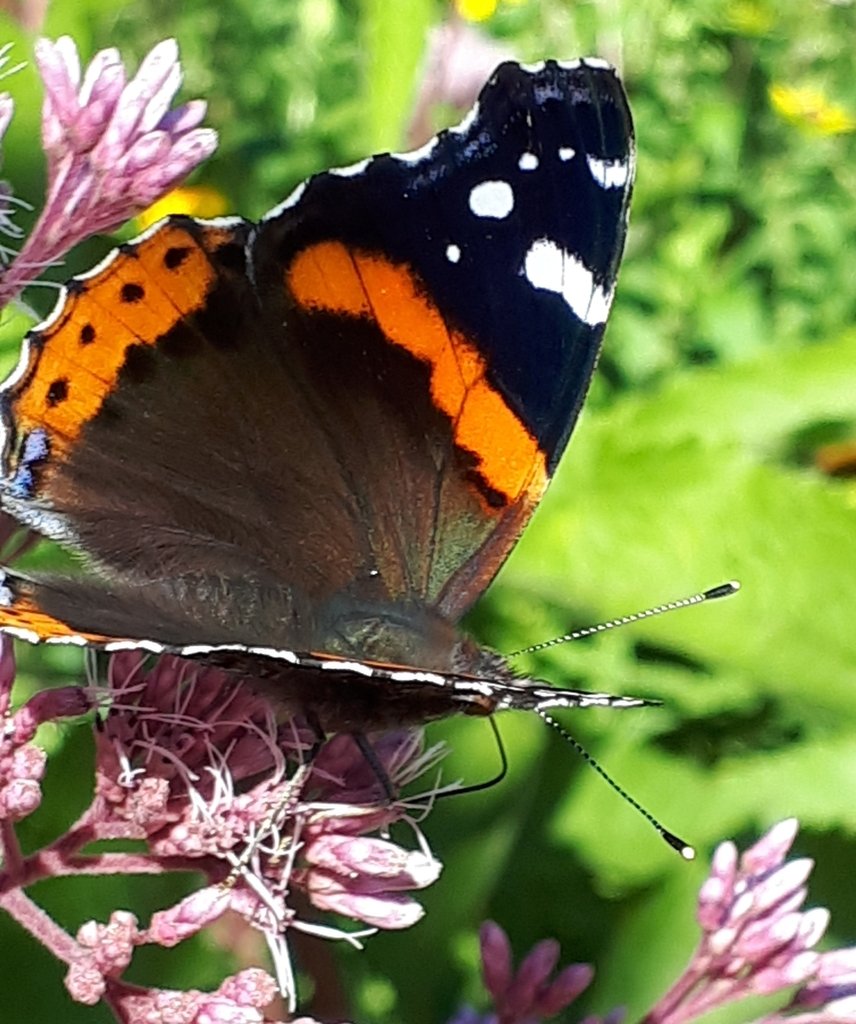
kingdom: Animalia
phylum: Arthropoda
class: Insecta
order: Lepidoptera
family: Nymphalidae
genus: Vanessa
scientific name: Vanessa atalanta
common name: Red Admiral
